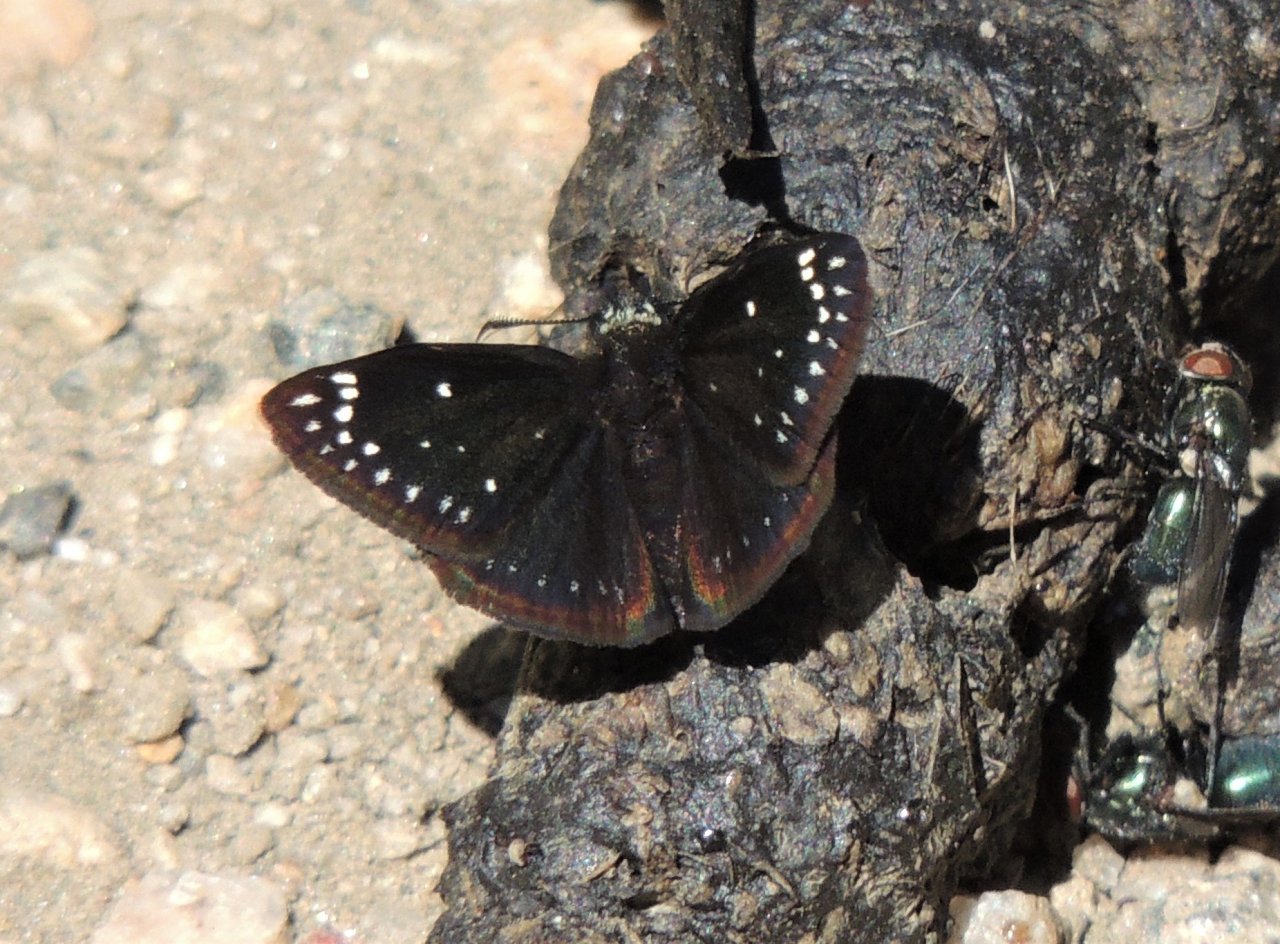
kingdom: Animalia
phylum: Arthropoda
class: Insecta
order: Lepidoptera
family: Hesperiidae
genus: Pholisora
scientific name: Pholisora catullus
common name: Common Sootywing
